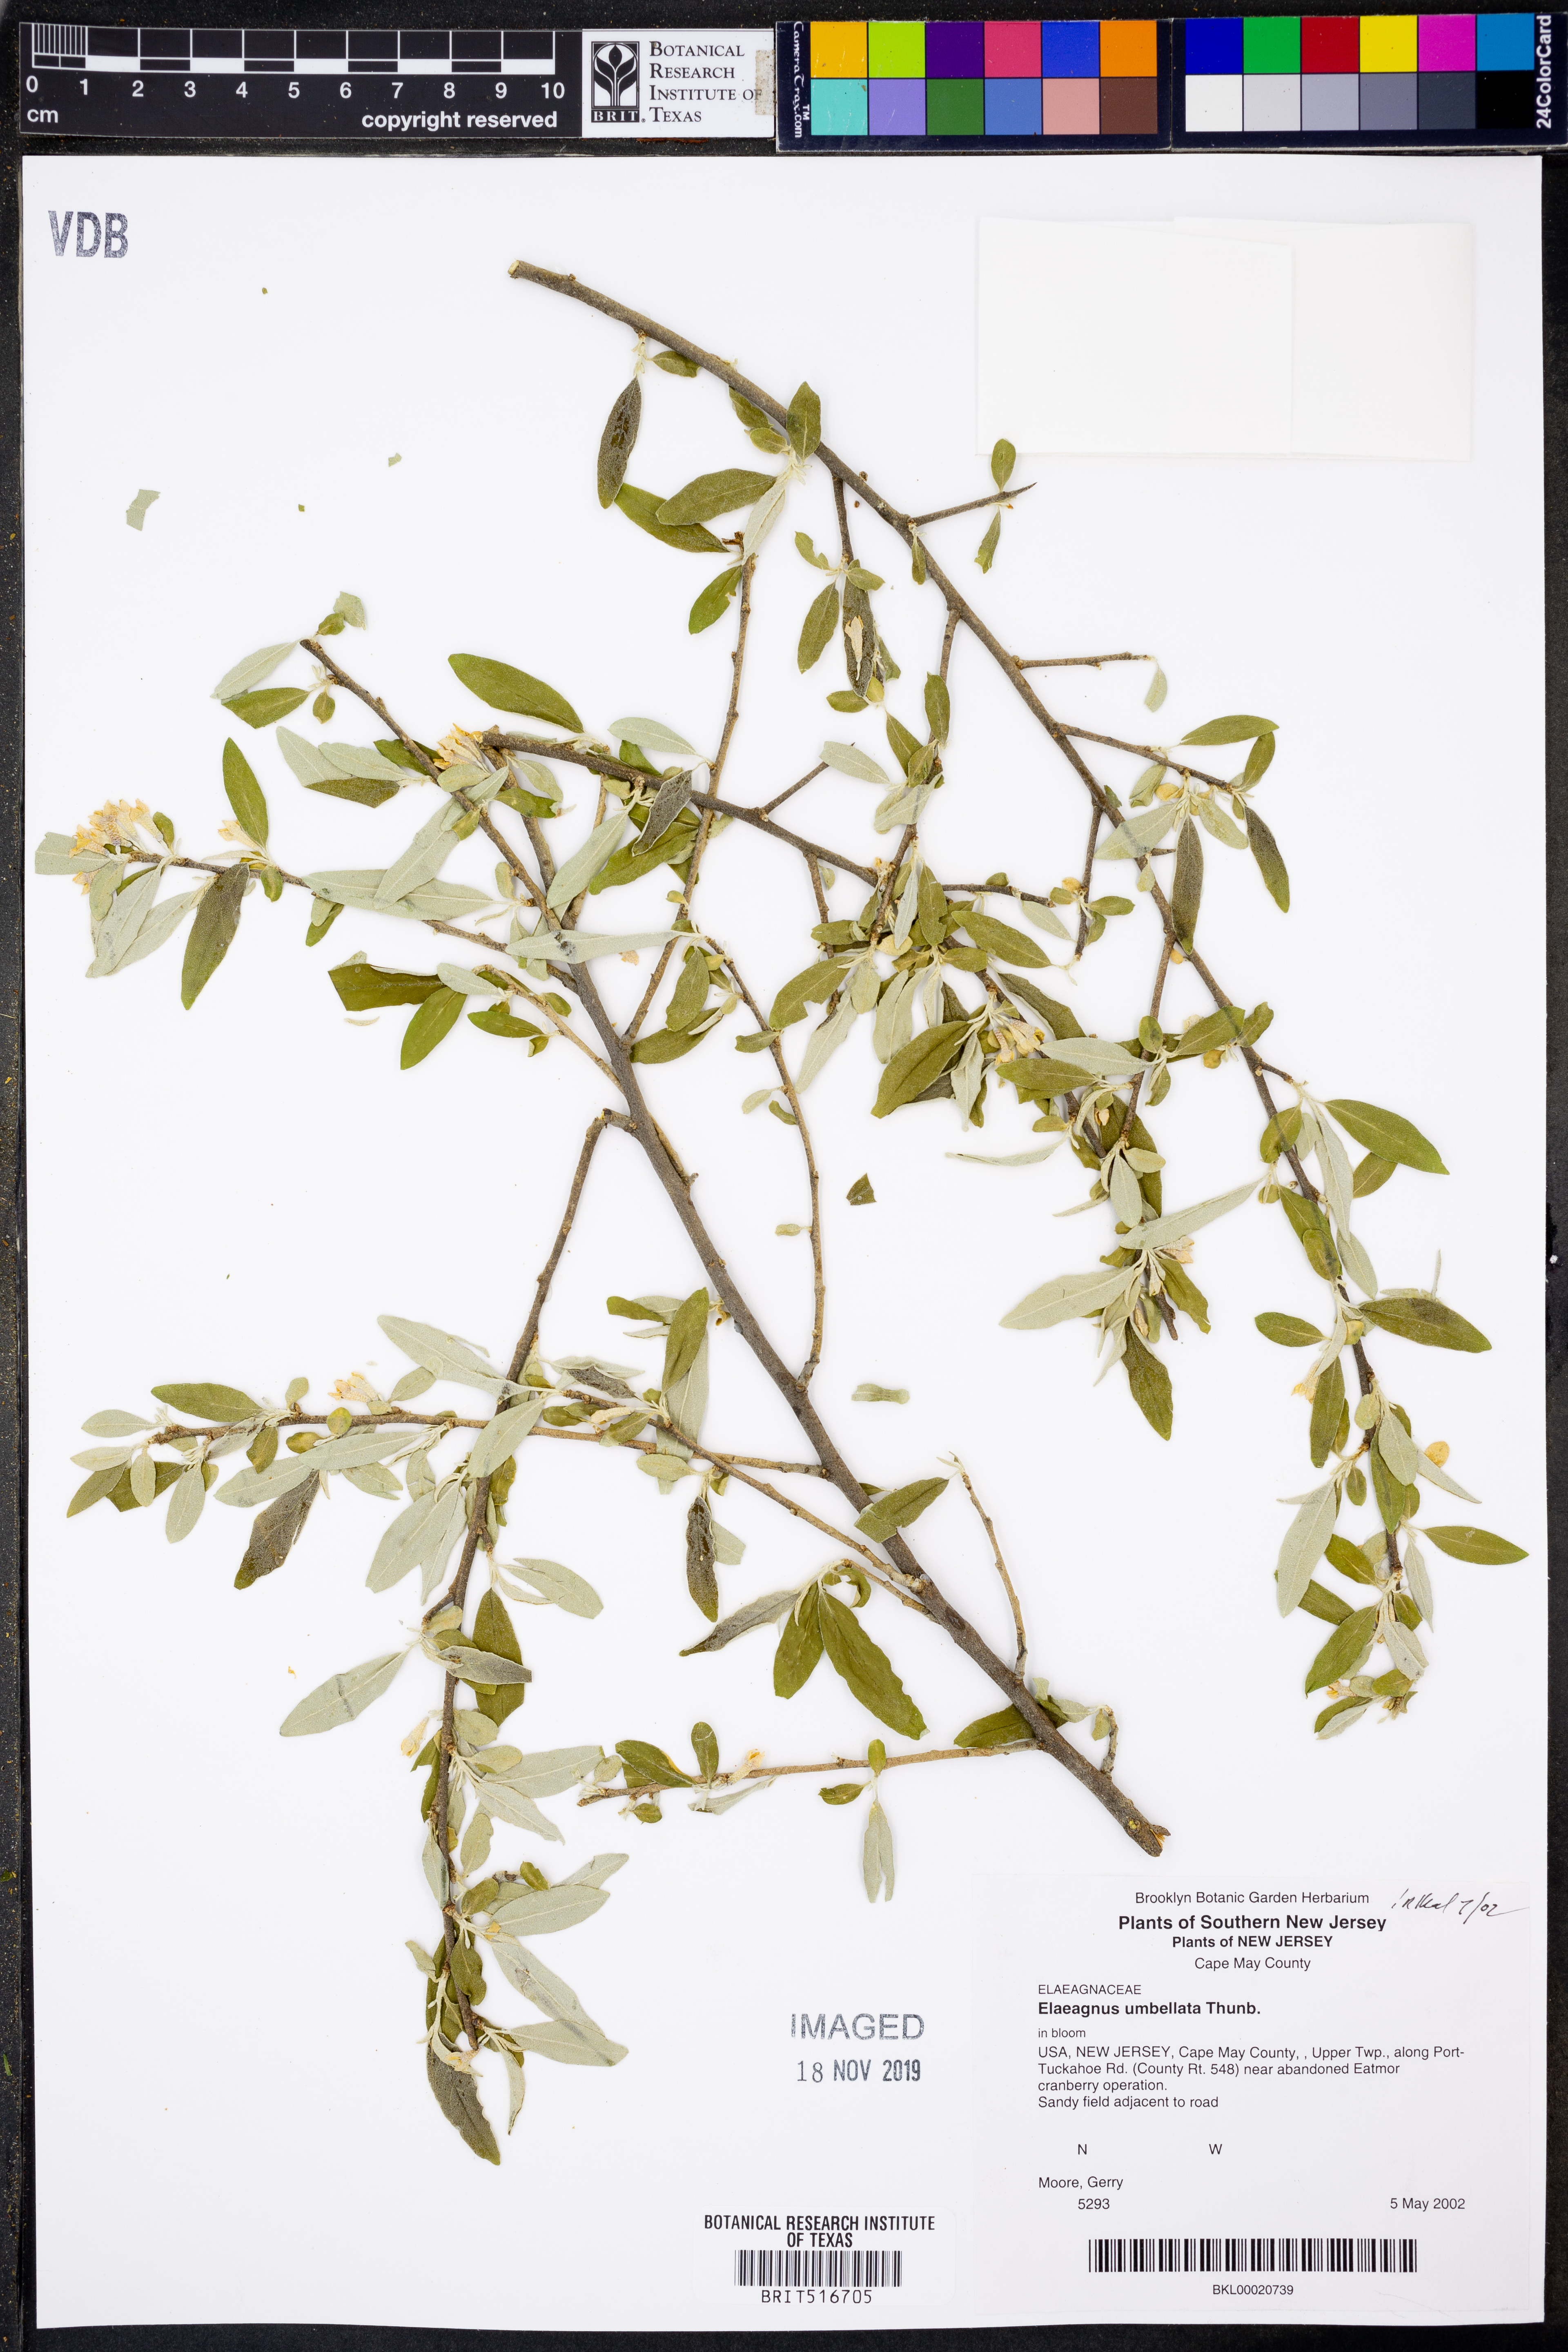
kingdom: Plantae
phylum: Tracheophyta
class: Magnoliopsida
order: Rosales
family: Elaeagnaceae
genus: Elaeagnus
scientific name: Elaeagnus umbellata
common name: Autumn olive
